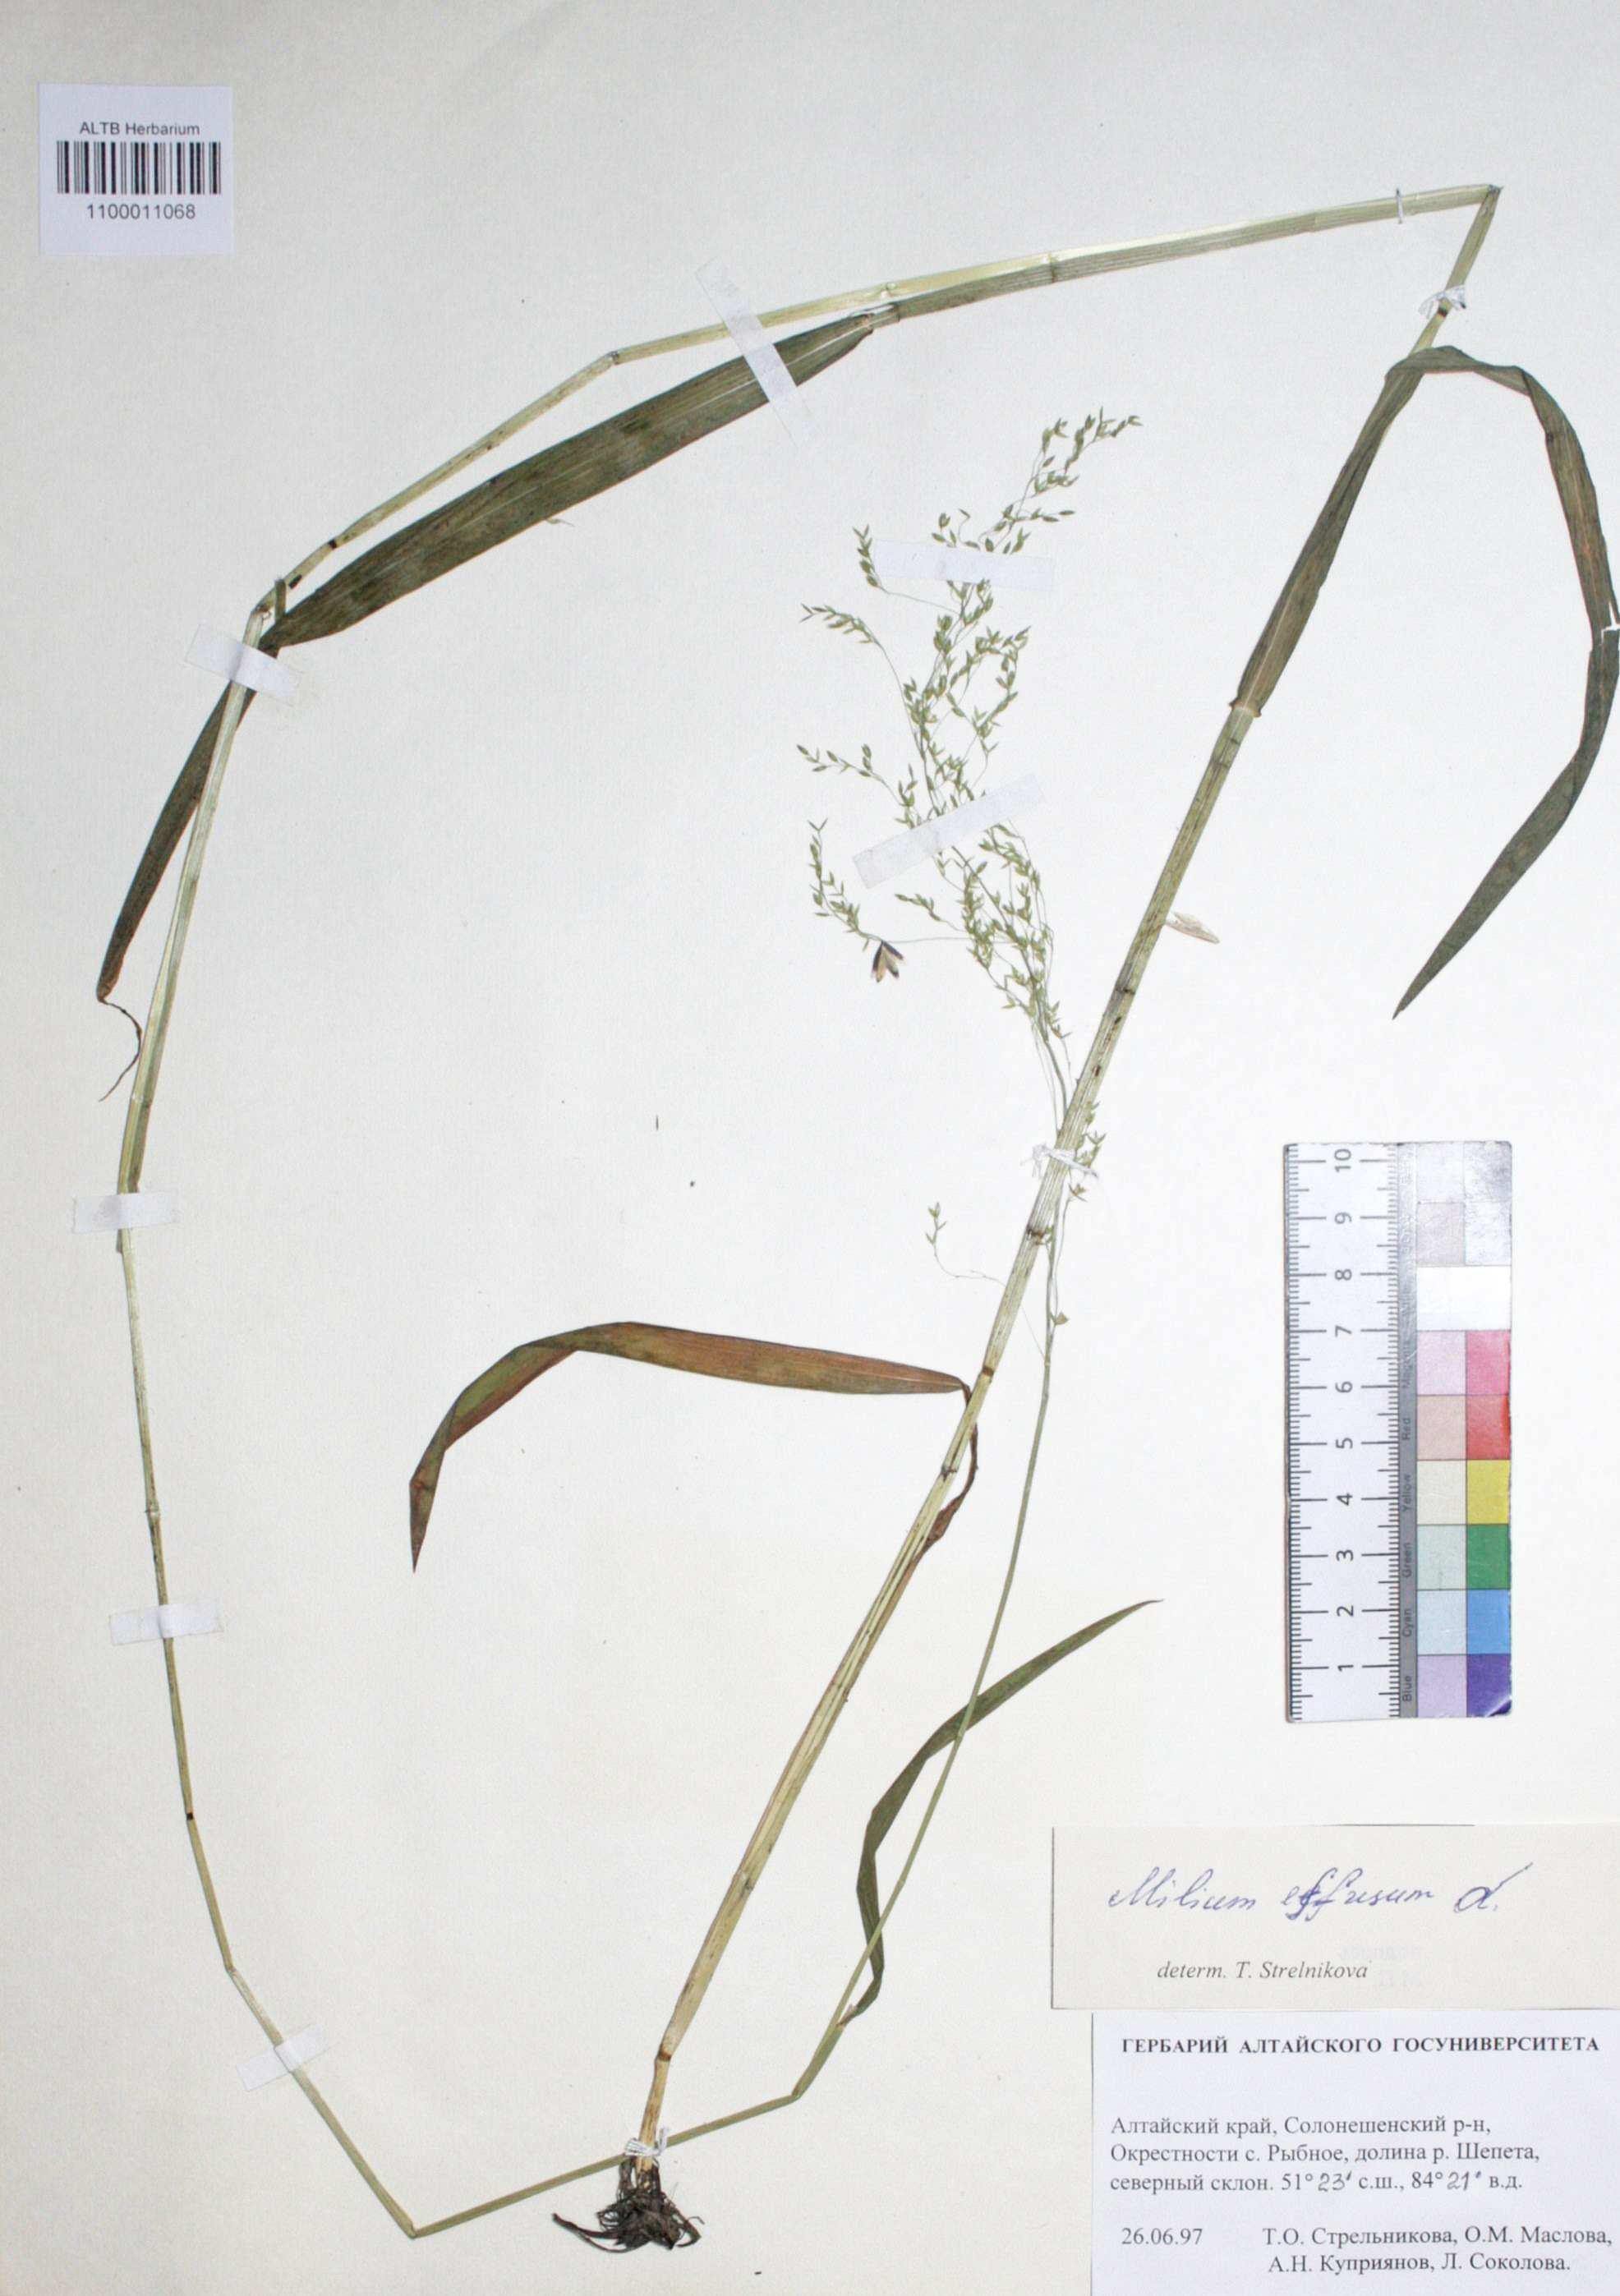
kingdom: Plantae
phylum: Tracheophyta
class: Liliopsida
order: Poales
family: Poaceae
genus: Milium
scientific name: Milium effusum
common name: Wood millet
